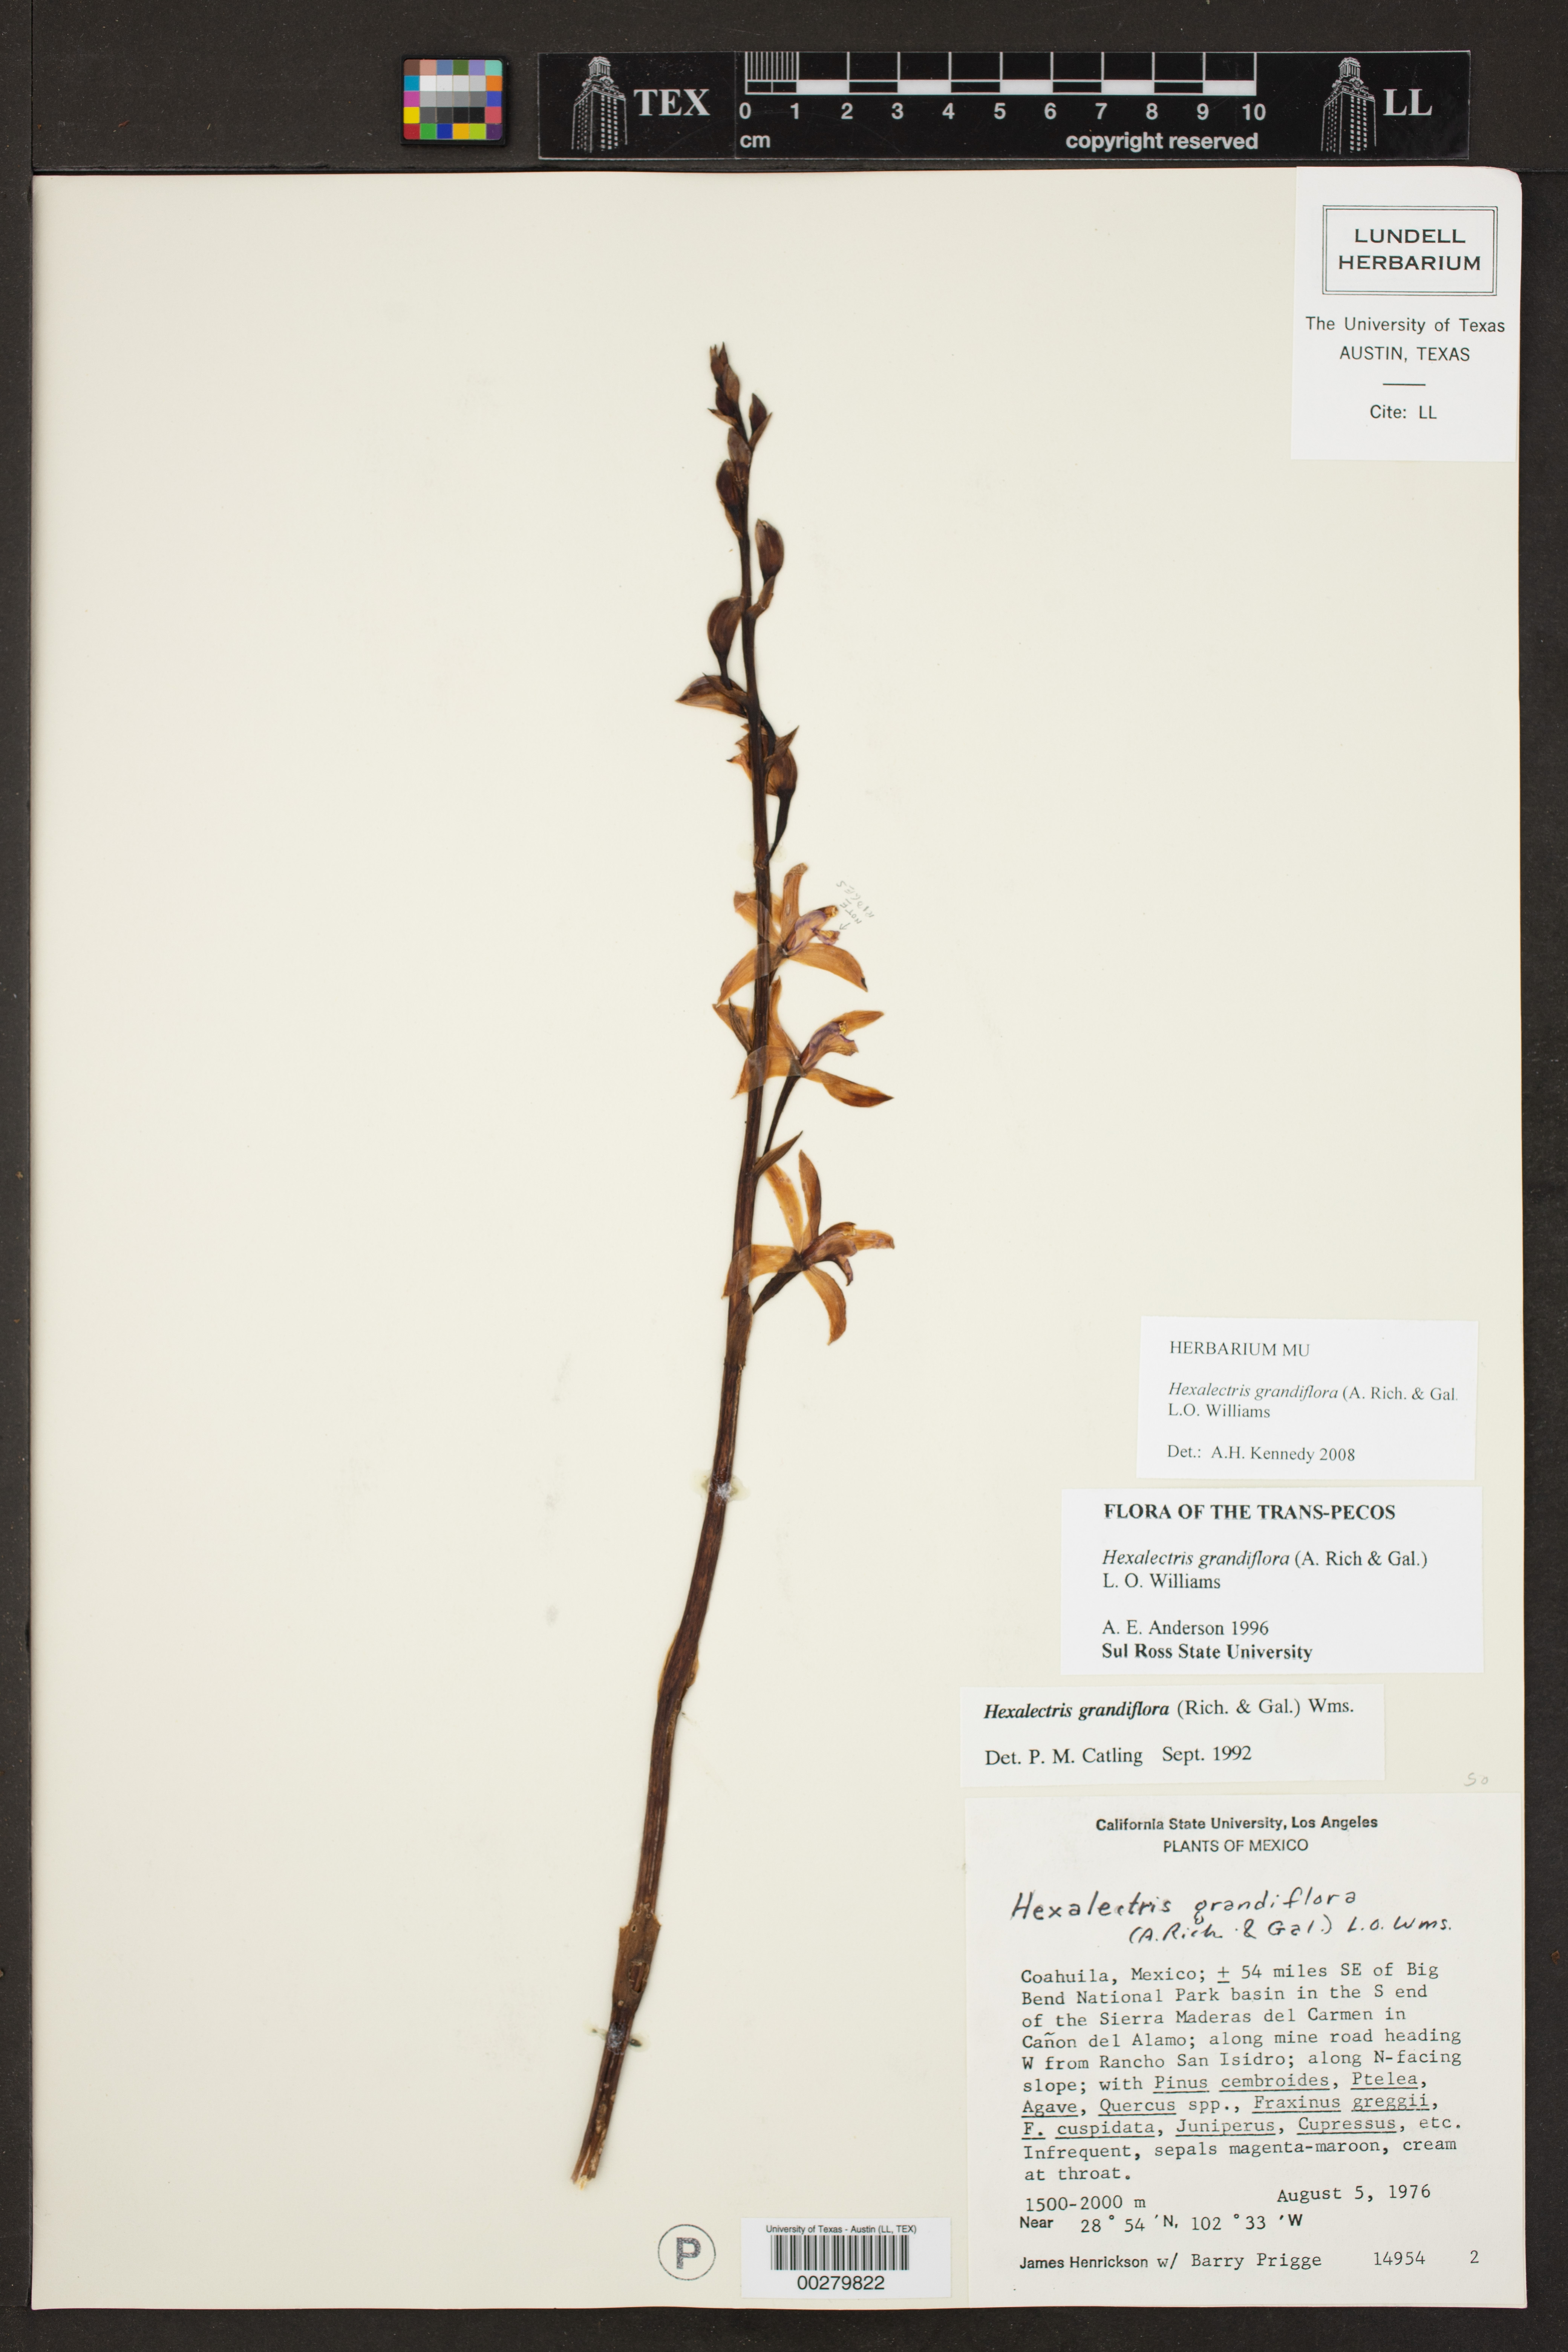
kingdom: Plantae
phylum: Tracheophyta
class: Liliopsida
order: Asparagales
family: Orchidaceae
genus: Bletia
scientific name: Bletia mexicana
